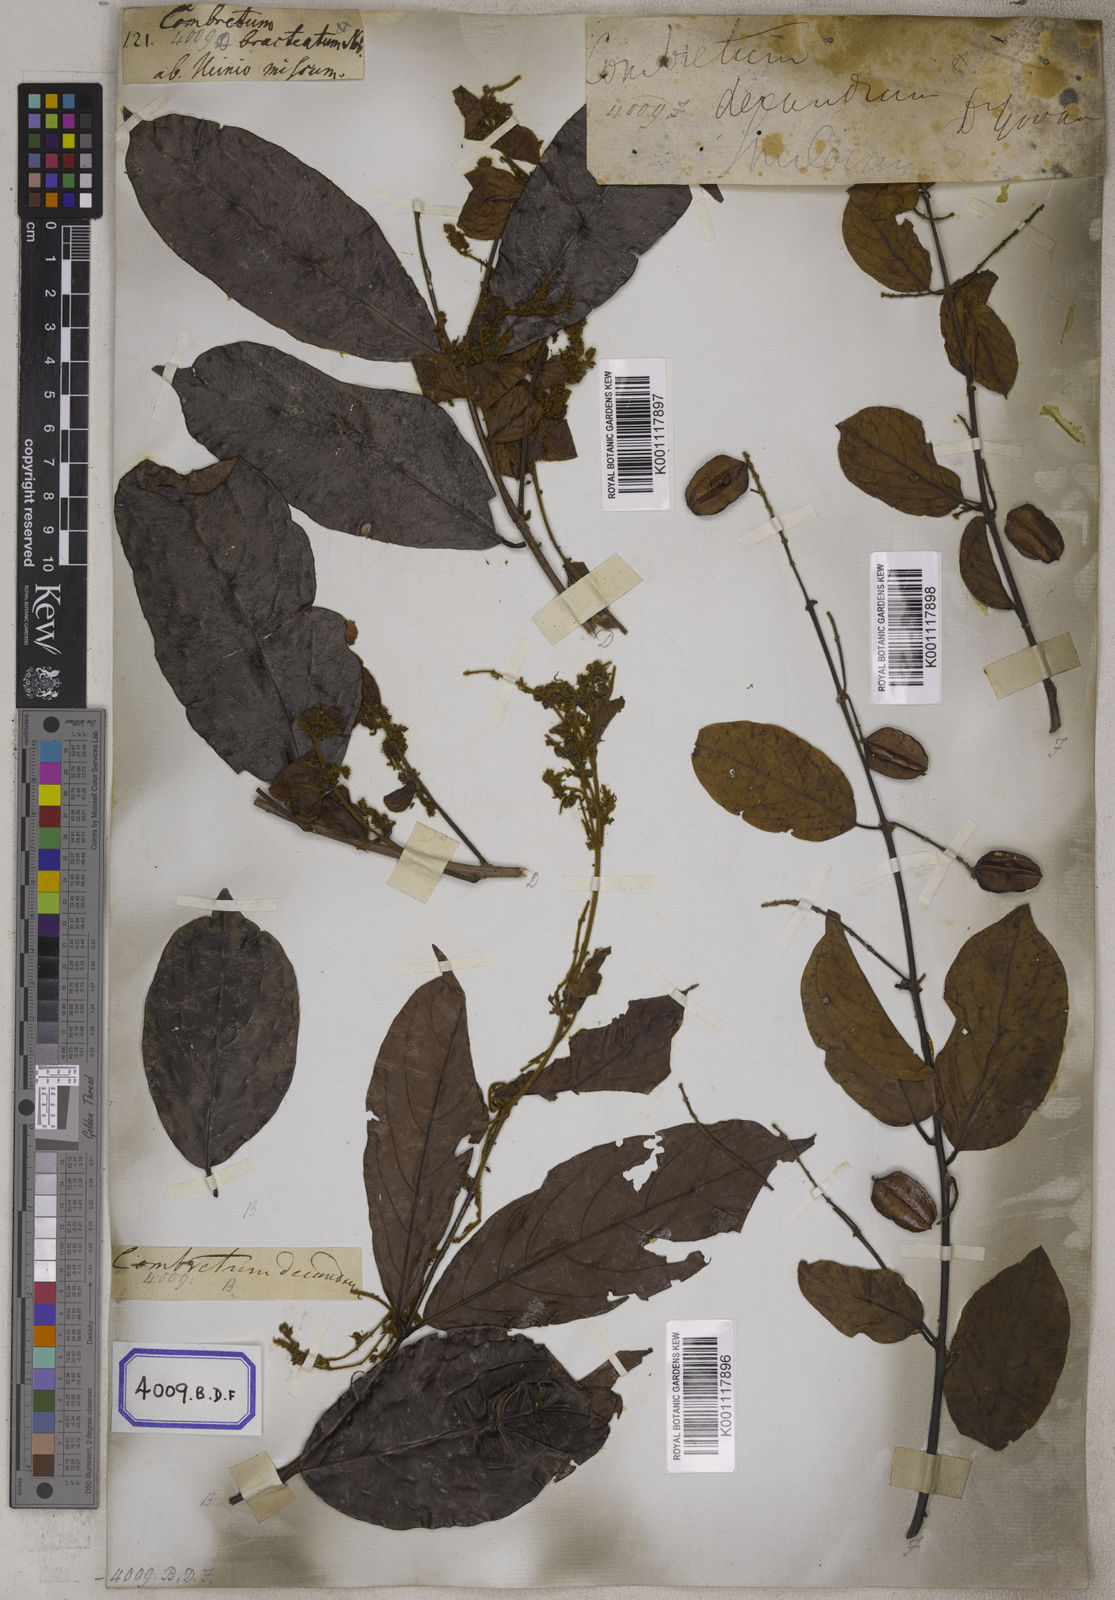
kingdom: Plantae
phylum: Tracheophyta
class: Magnoliopsida
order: Myrtales
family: Combretaceae
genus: Combretum
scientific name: Combretum decandrum
